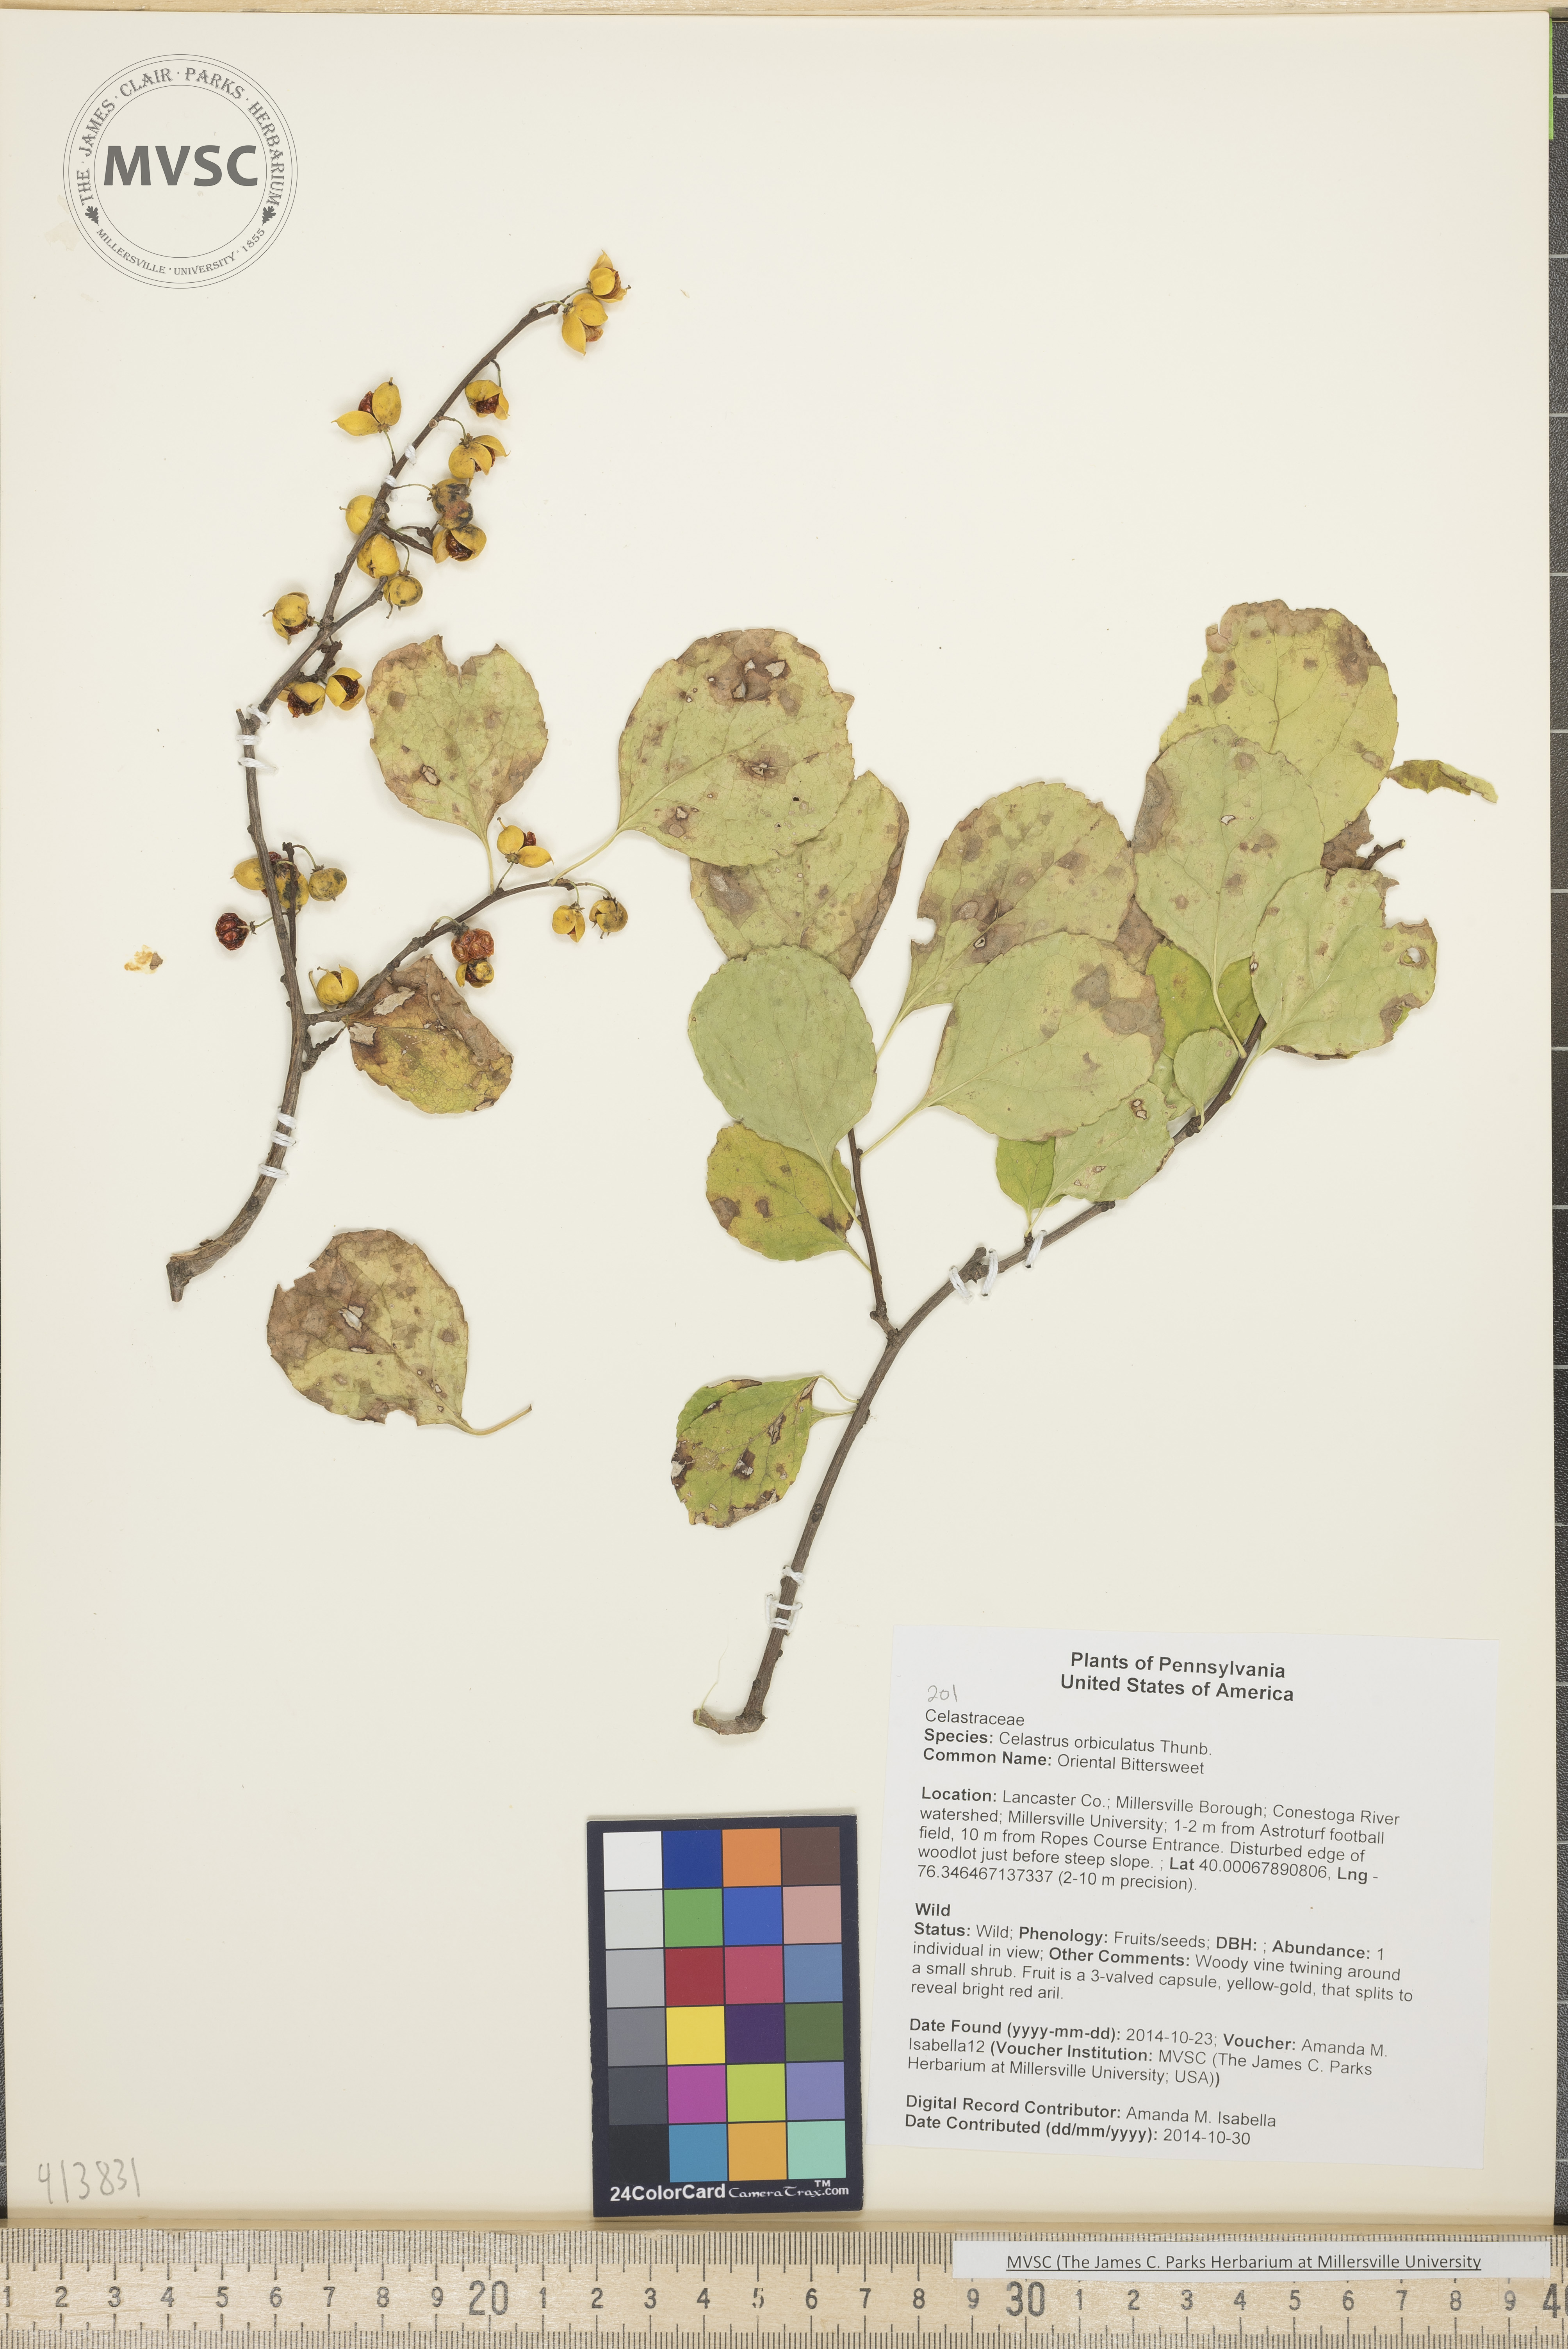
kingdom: Plantae
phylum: Tracheophyta
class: Magnoliopsida
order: Celastrales
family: Celastraceae
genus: Celastrus
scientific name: Celastrus orbiculatus
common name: Oriental Bittersweet
